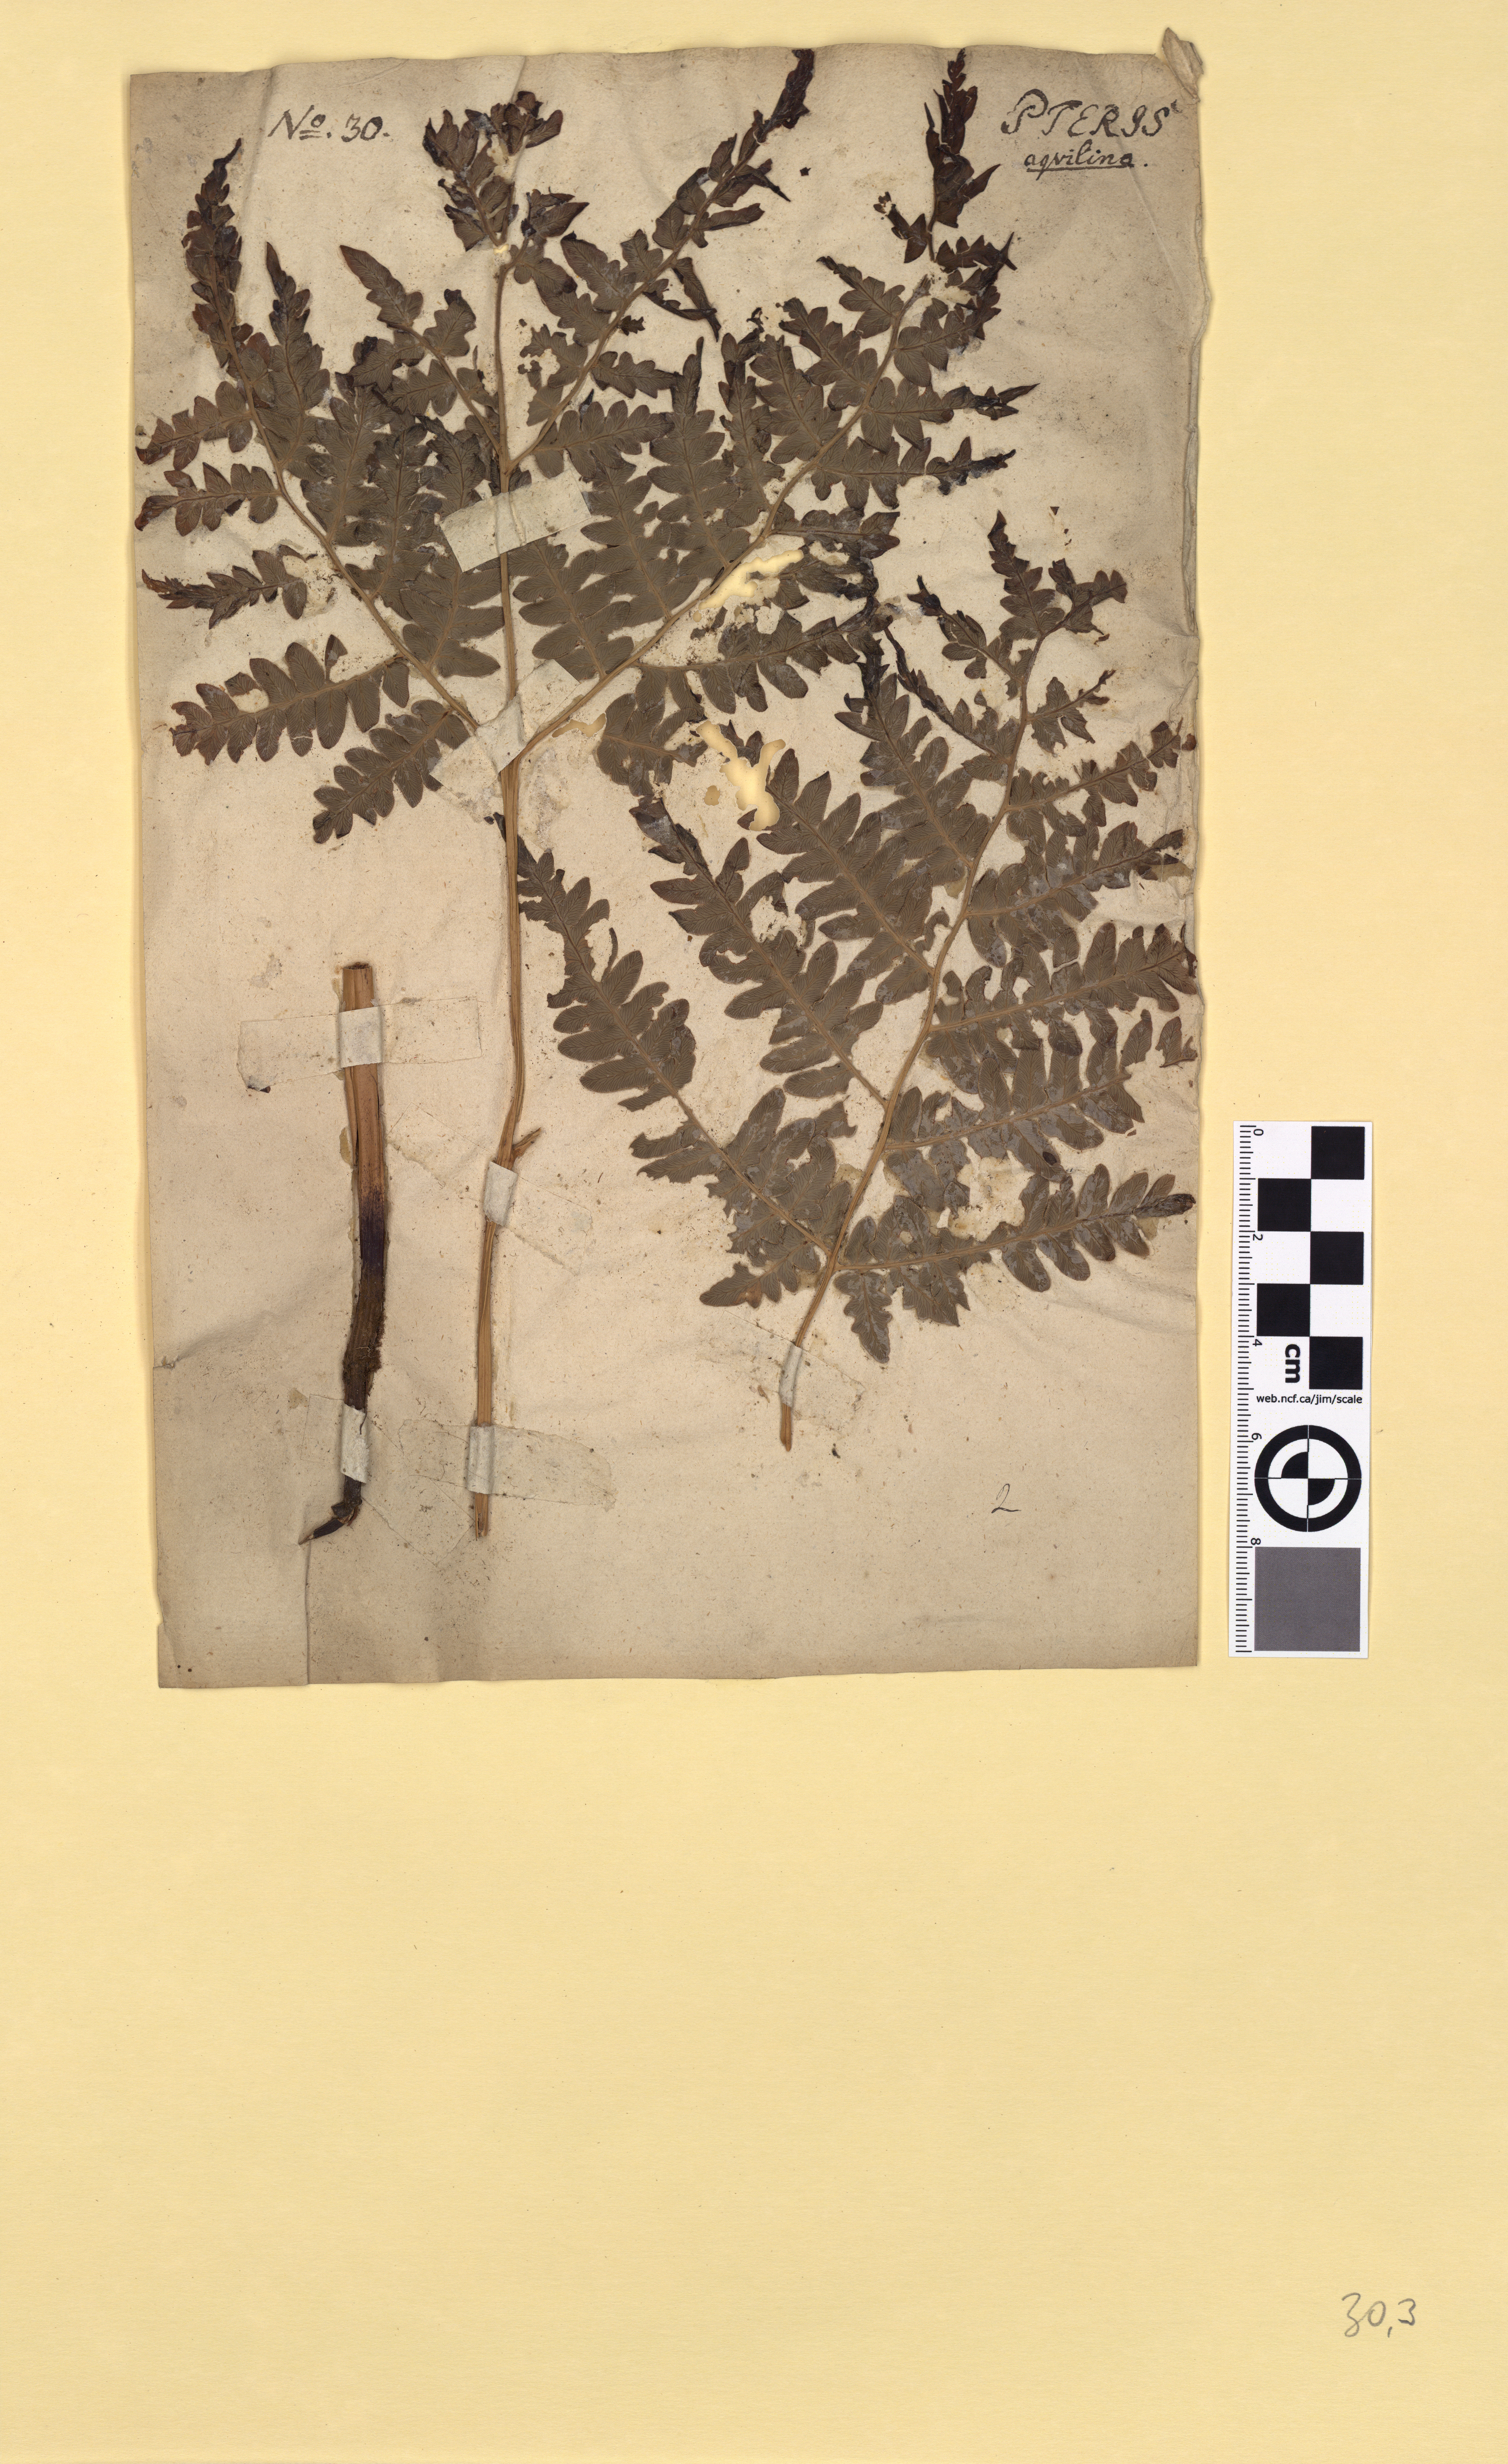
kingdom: Plantae
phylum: Tracheophyta
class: Polypodiopsida
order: Polypodiales
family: Dennstaedtiaceae
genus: Pteridium
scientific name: Pteridium aquilinum
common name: Bracken
